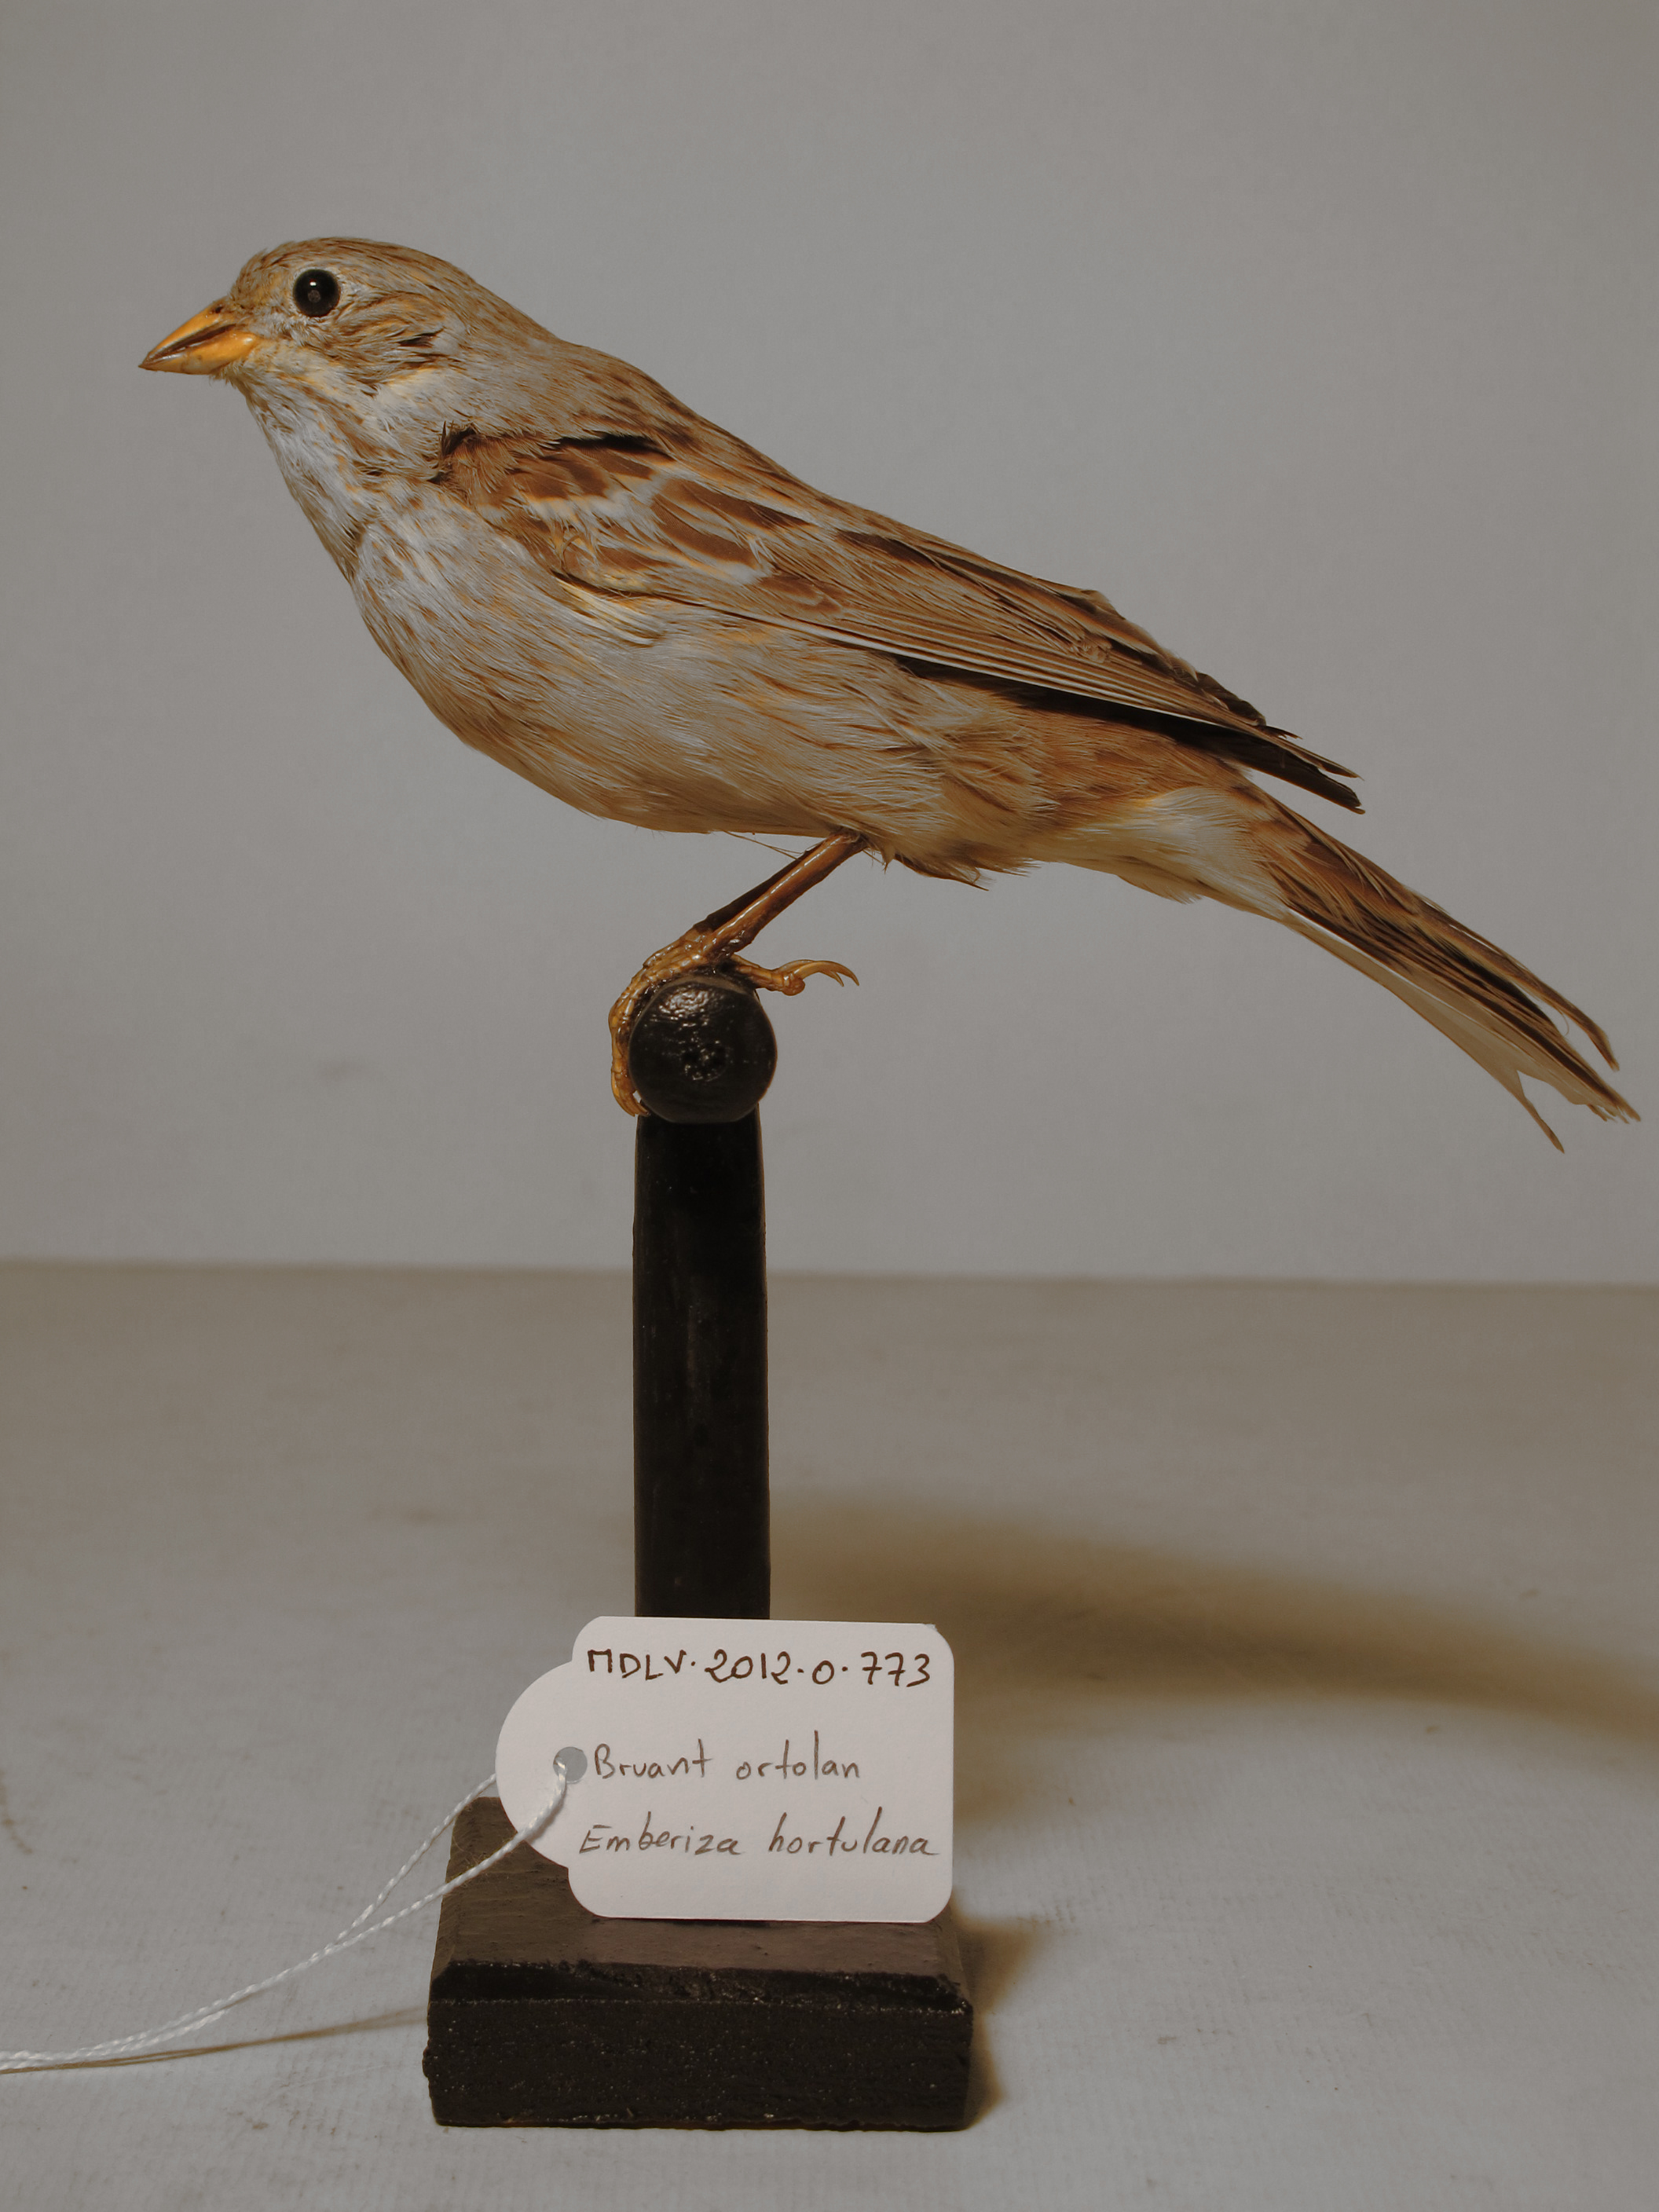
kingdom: Animalia
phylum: Chordata
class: Aves
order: Passeriformes
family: Emberizidae
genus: Emberiza
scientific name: Emberiza hortulana
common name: Ortolan Bunting
